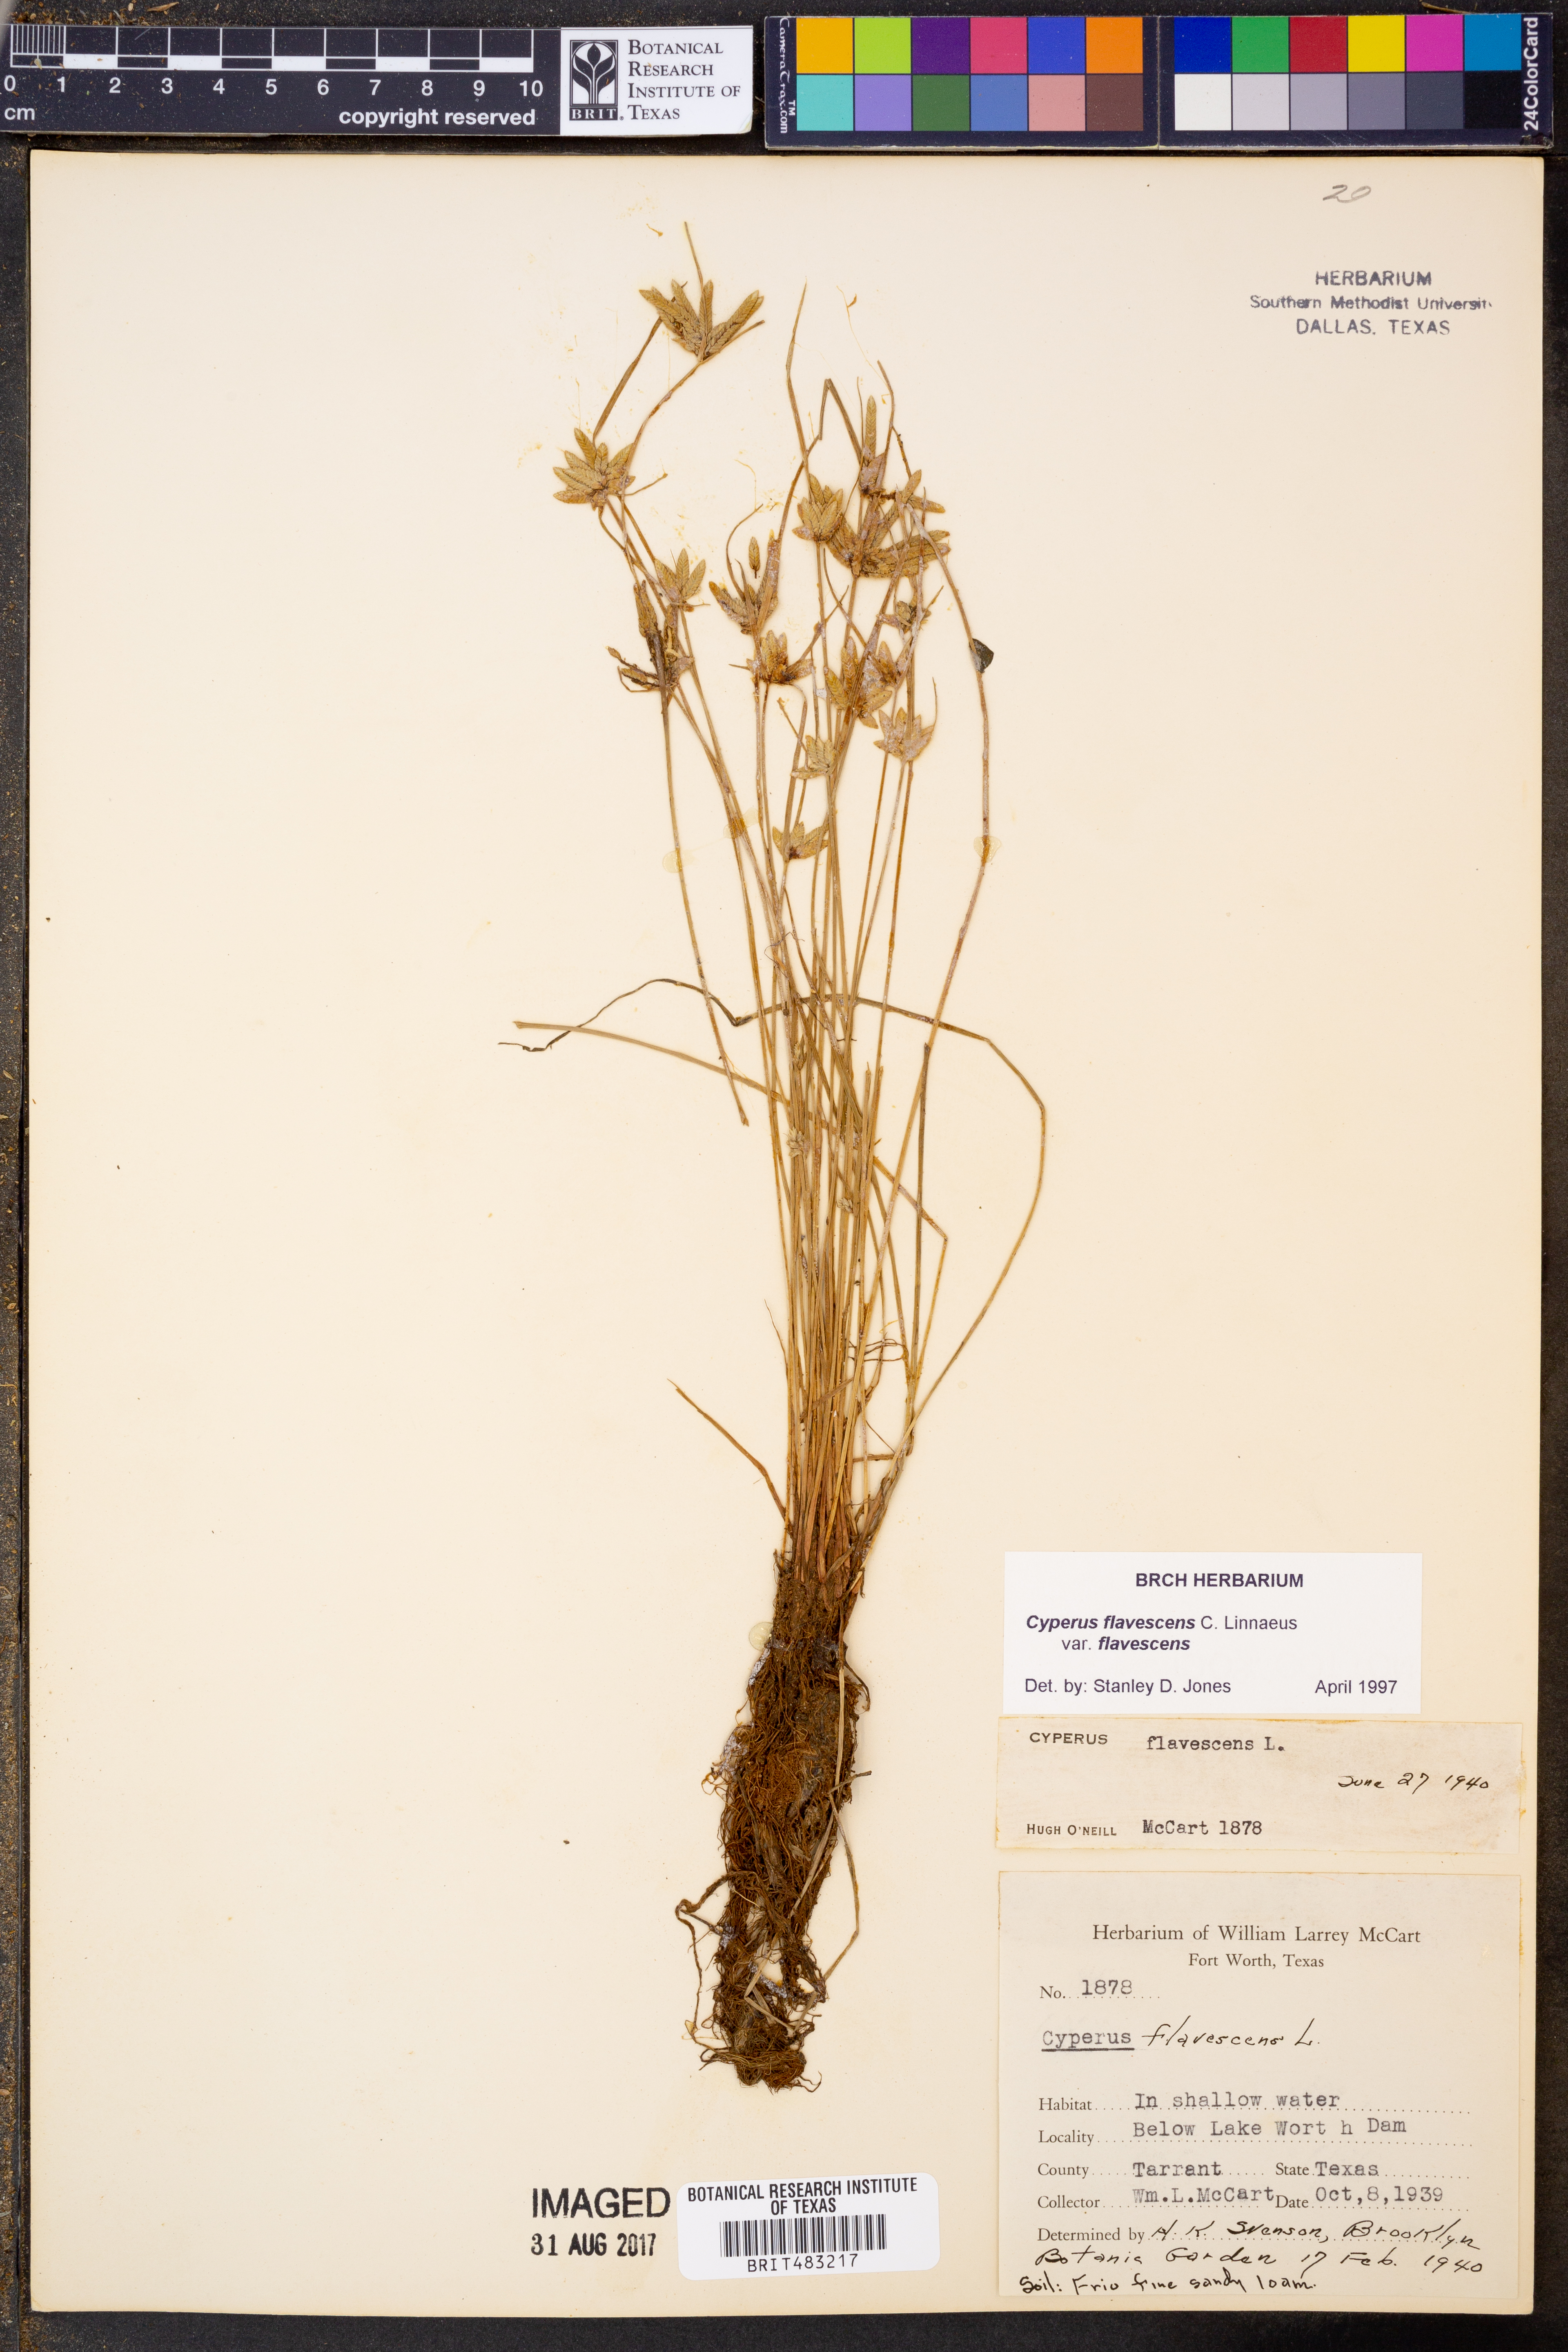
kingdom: Plantae
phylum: Tracheophyta
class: Liliopsida
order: Poales
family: Cyperaceae
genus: Cyperus
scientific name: Cyperus flavescens
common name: Yellow galingale
